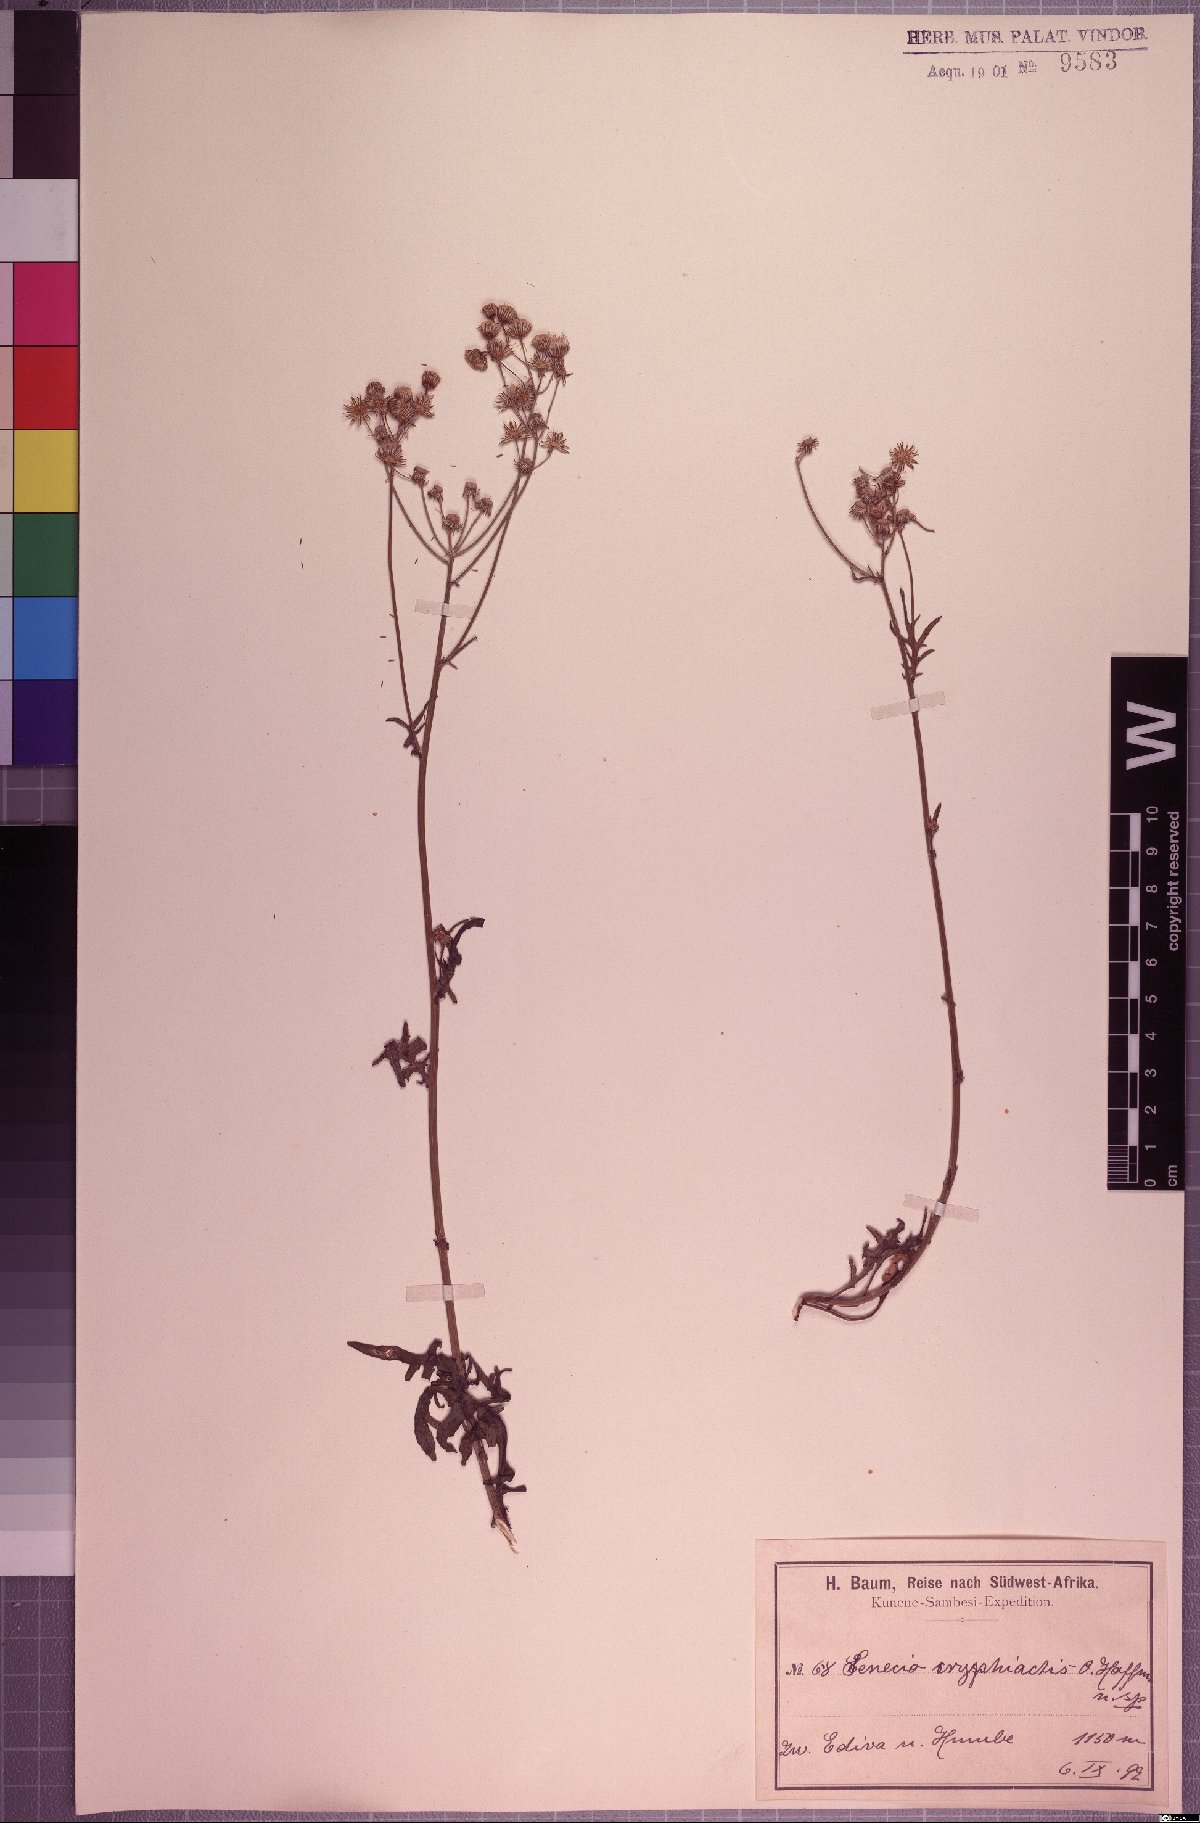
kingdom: Plantae
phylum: Tracheophyta
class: Magnoliopsida
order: Asterales
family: Asteraceae
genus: Senecio
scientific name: Senecio cryphiactis
